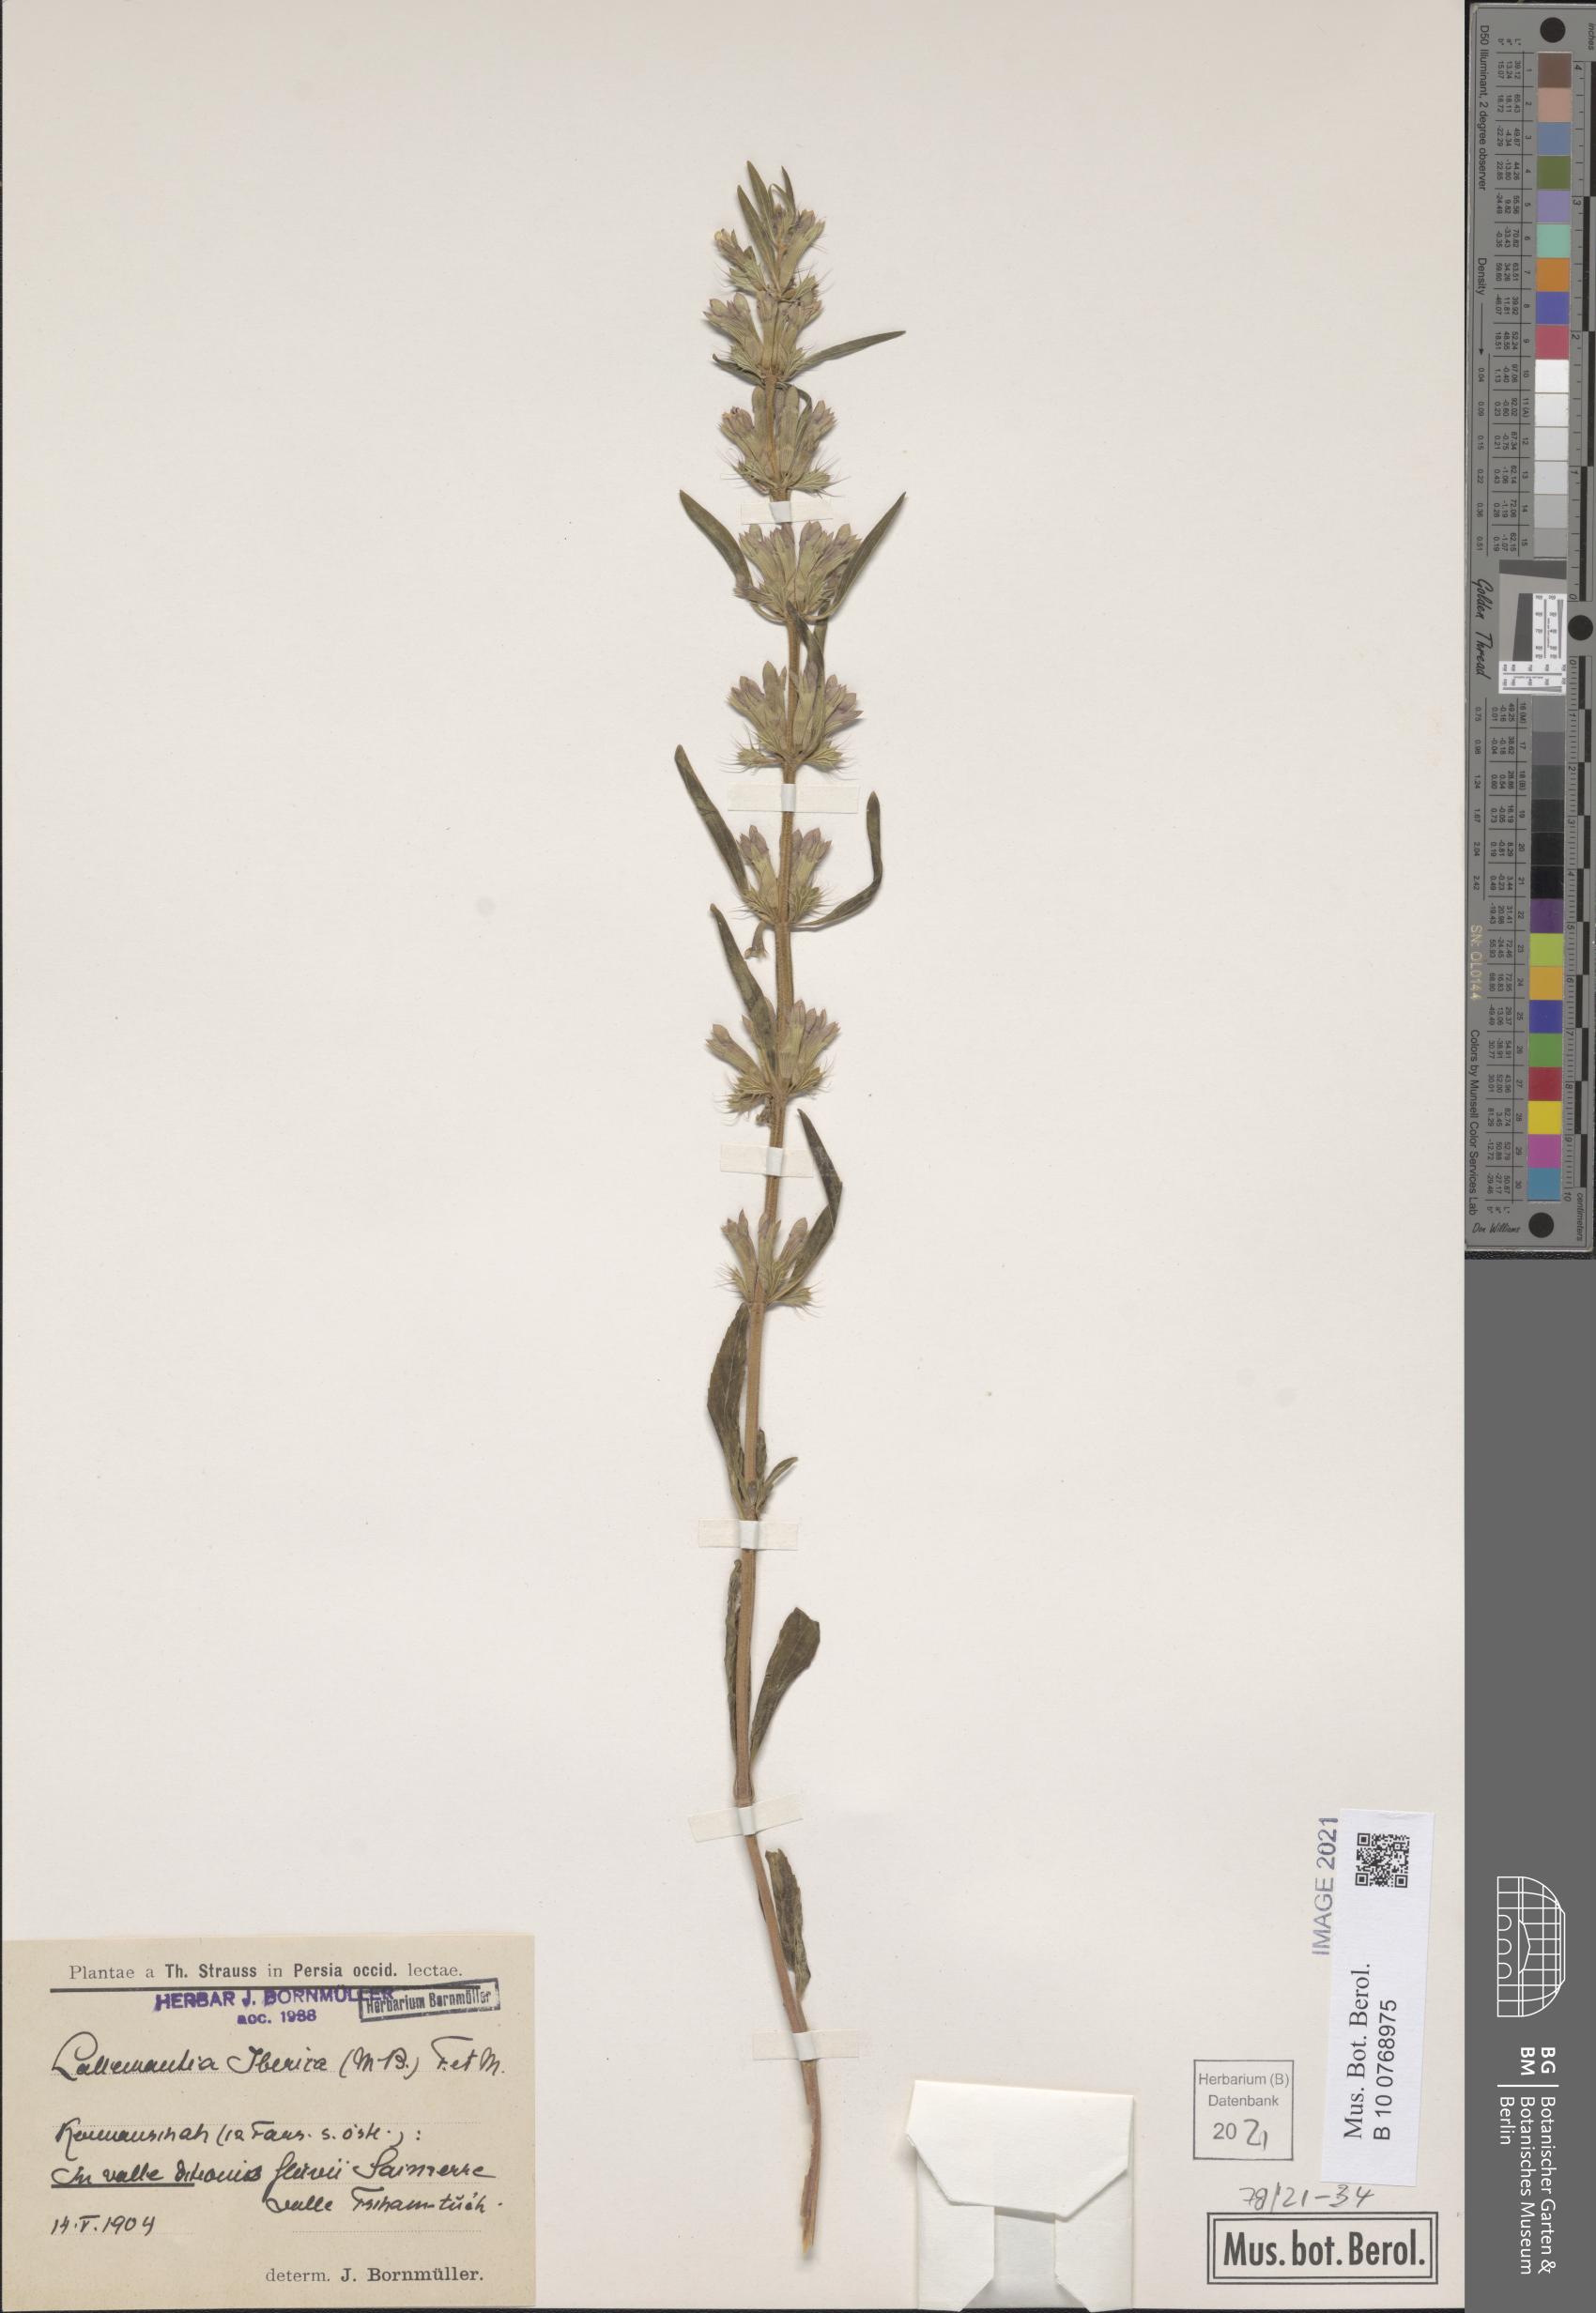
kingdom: Plantae
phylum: Tracheophyta
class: Magnoliopsida
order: Lamiales
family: Lamiaceae
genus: Lallemantia
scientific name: Lallemantia iberica
